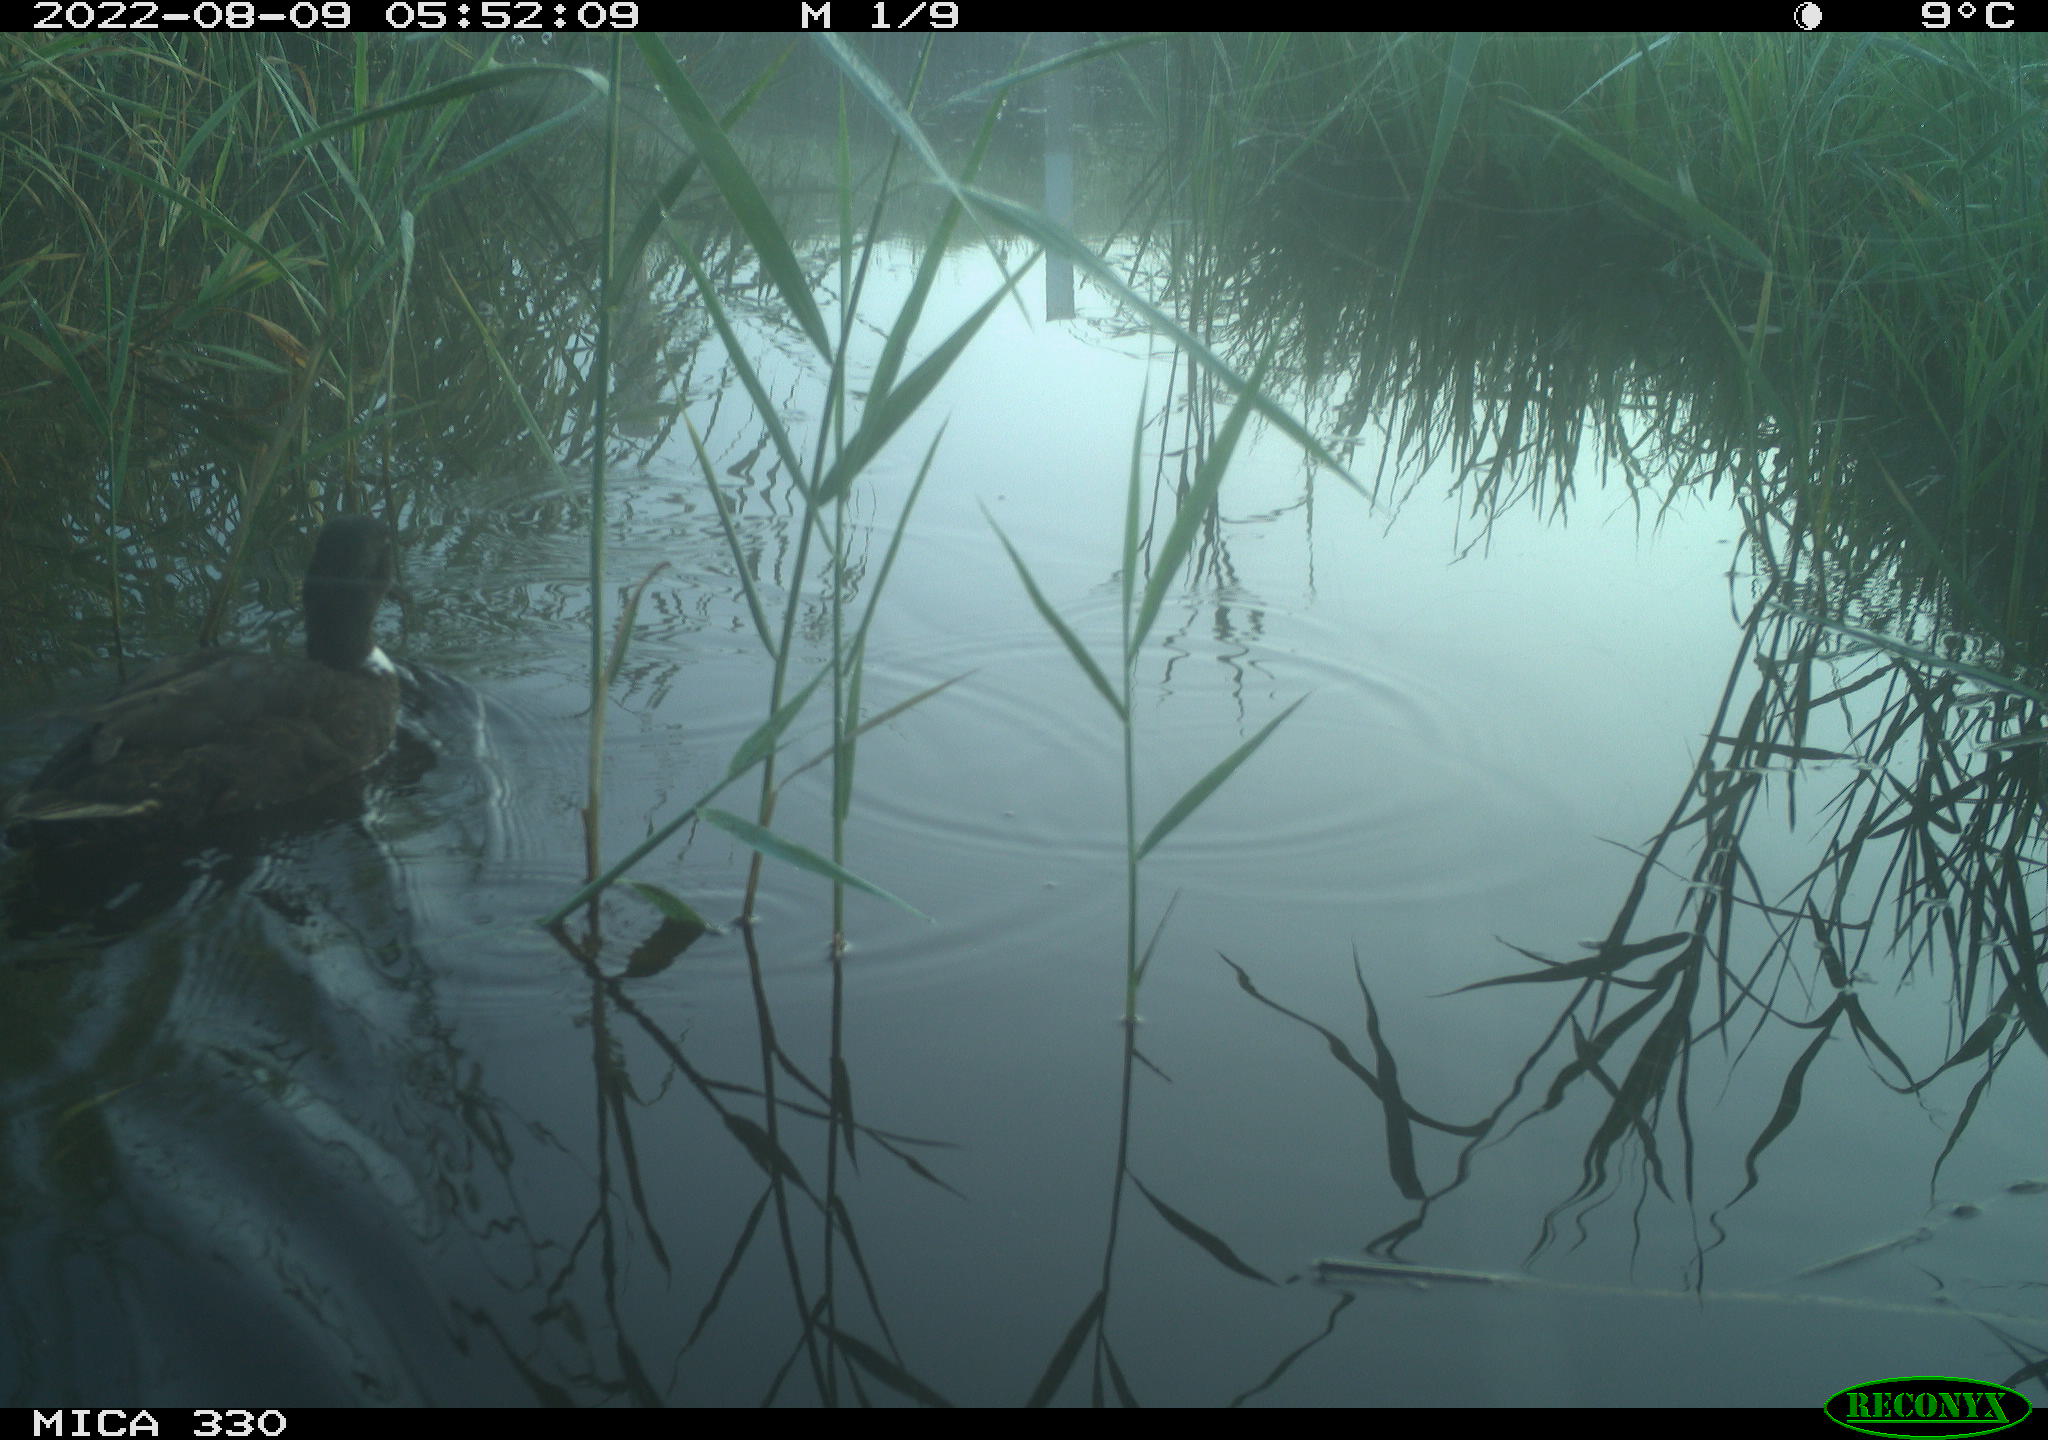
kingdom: Animalia
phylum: Chordata
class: Aves
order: Anseriformes
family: Anatidae
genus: Mareca
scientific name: Mareca strepera
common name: Gadwall
